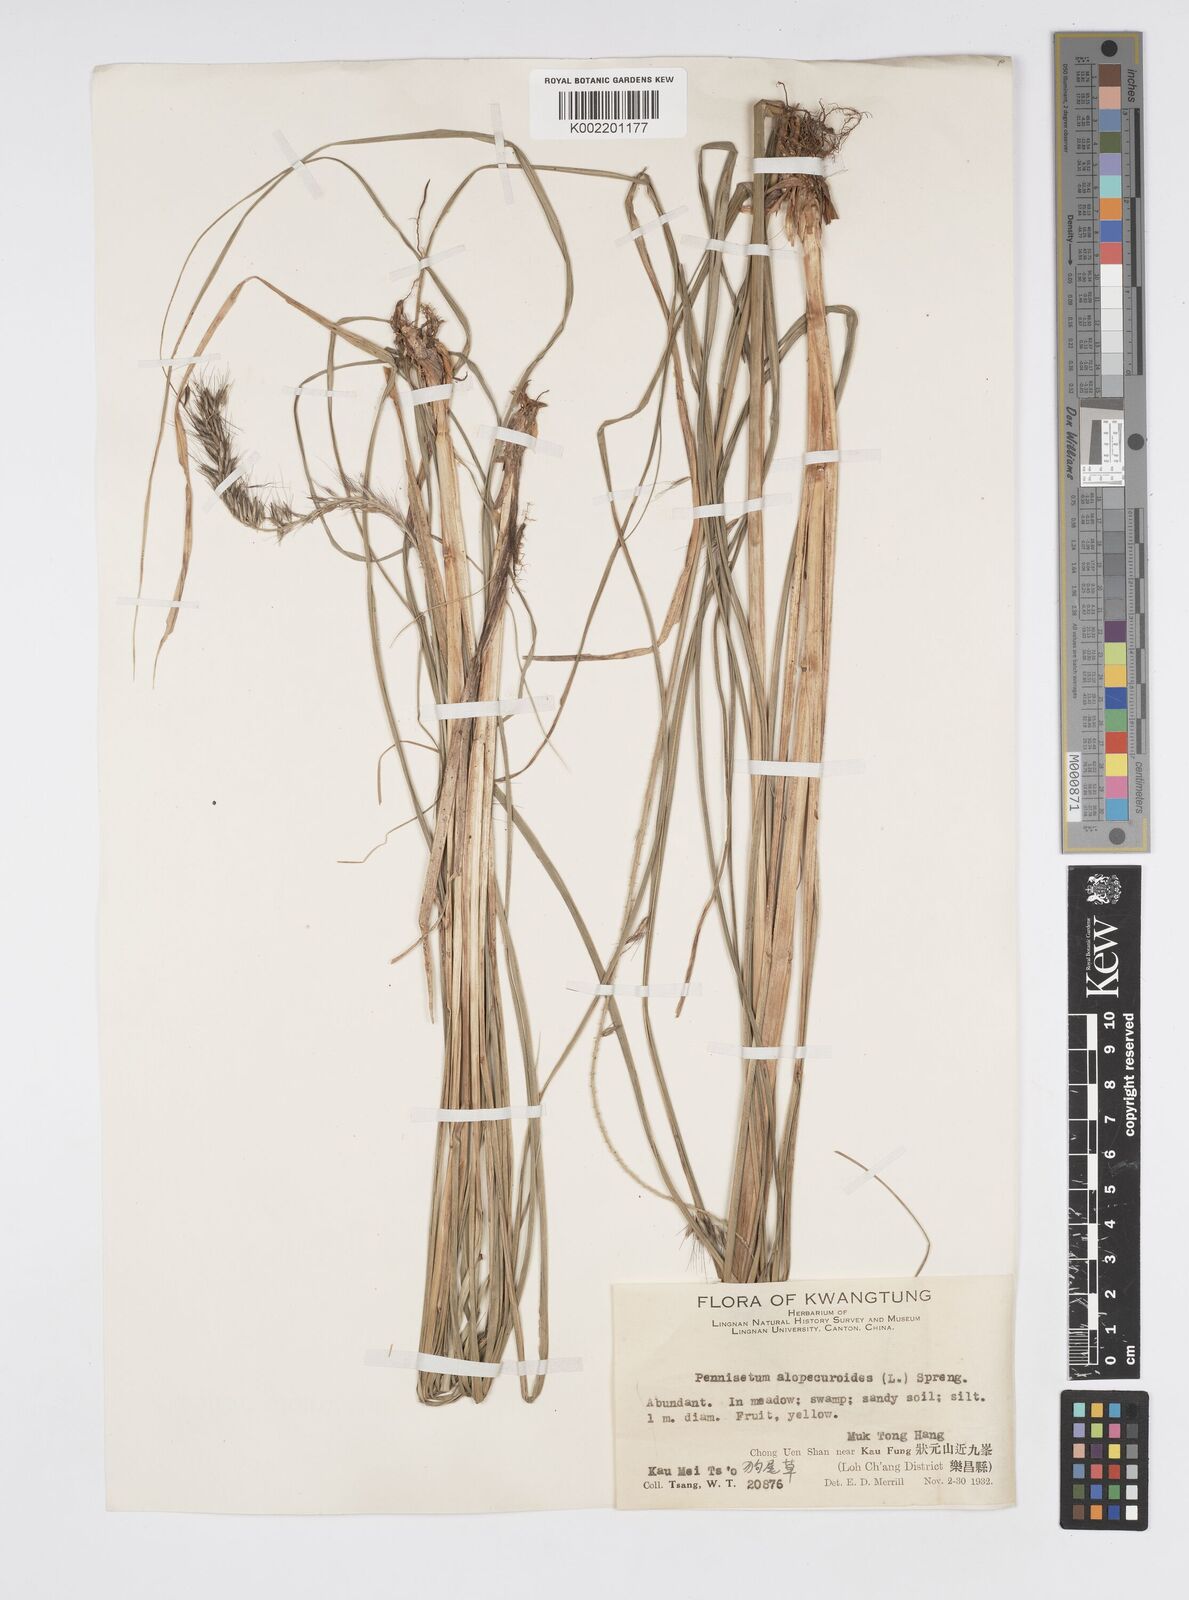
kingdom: Plantae
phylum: Tracheophyta
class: Liliopsida
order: Poales
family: Poaceae
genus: Cenchrus
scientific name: Cenchrus alopecuroides
